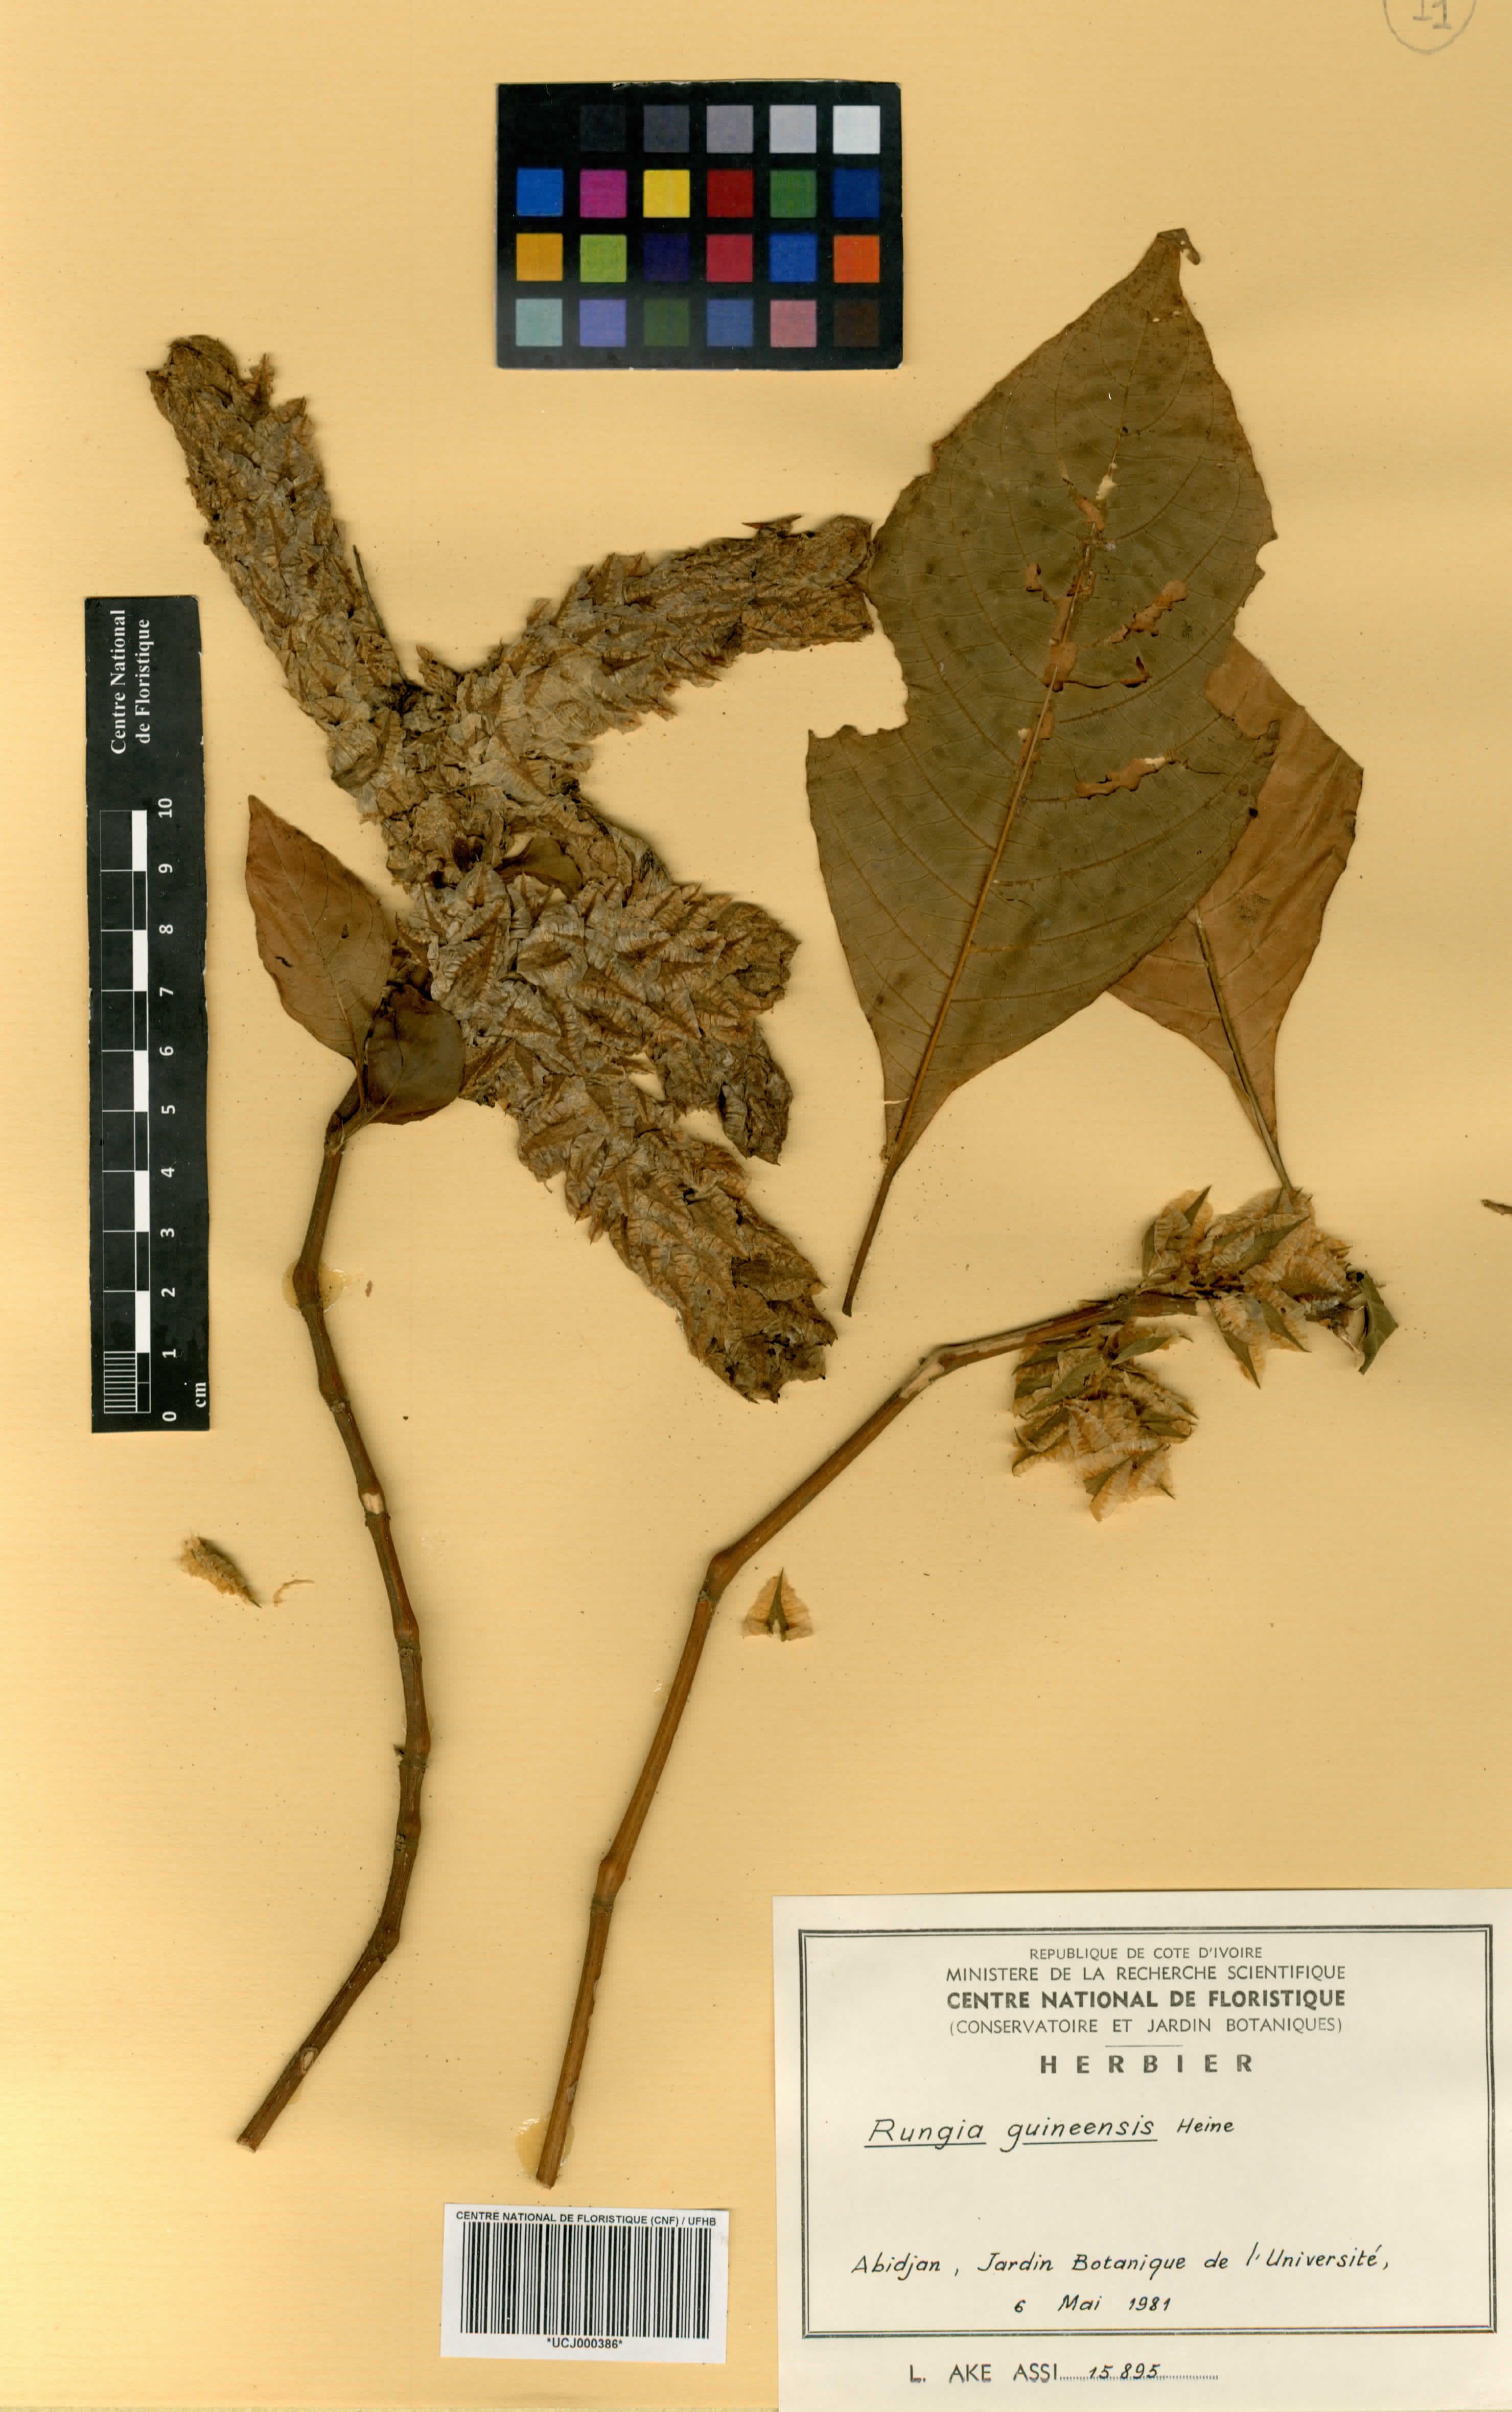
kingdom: Plantae
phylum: Tracheophyta
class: Magnoliopsida
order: Lamiales
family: Acanthaceae
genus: Justicia
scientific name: Justicia grandis
